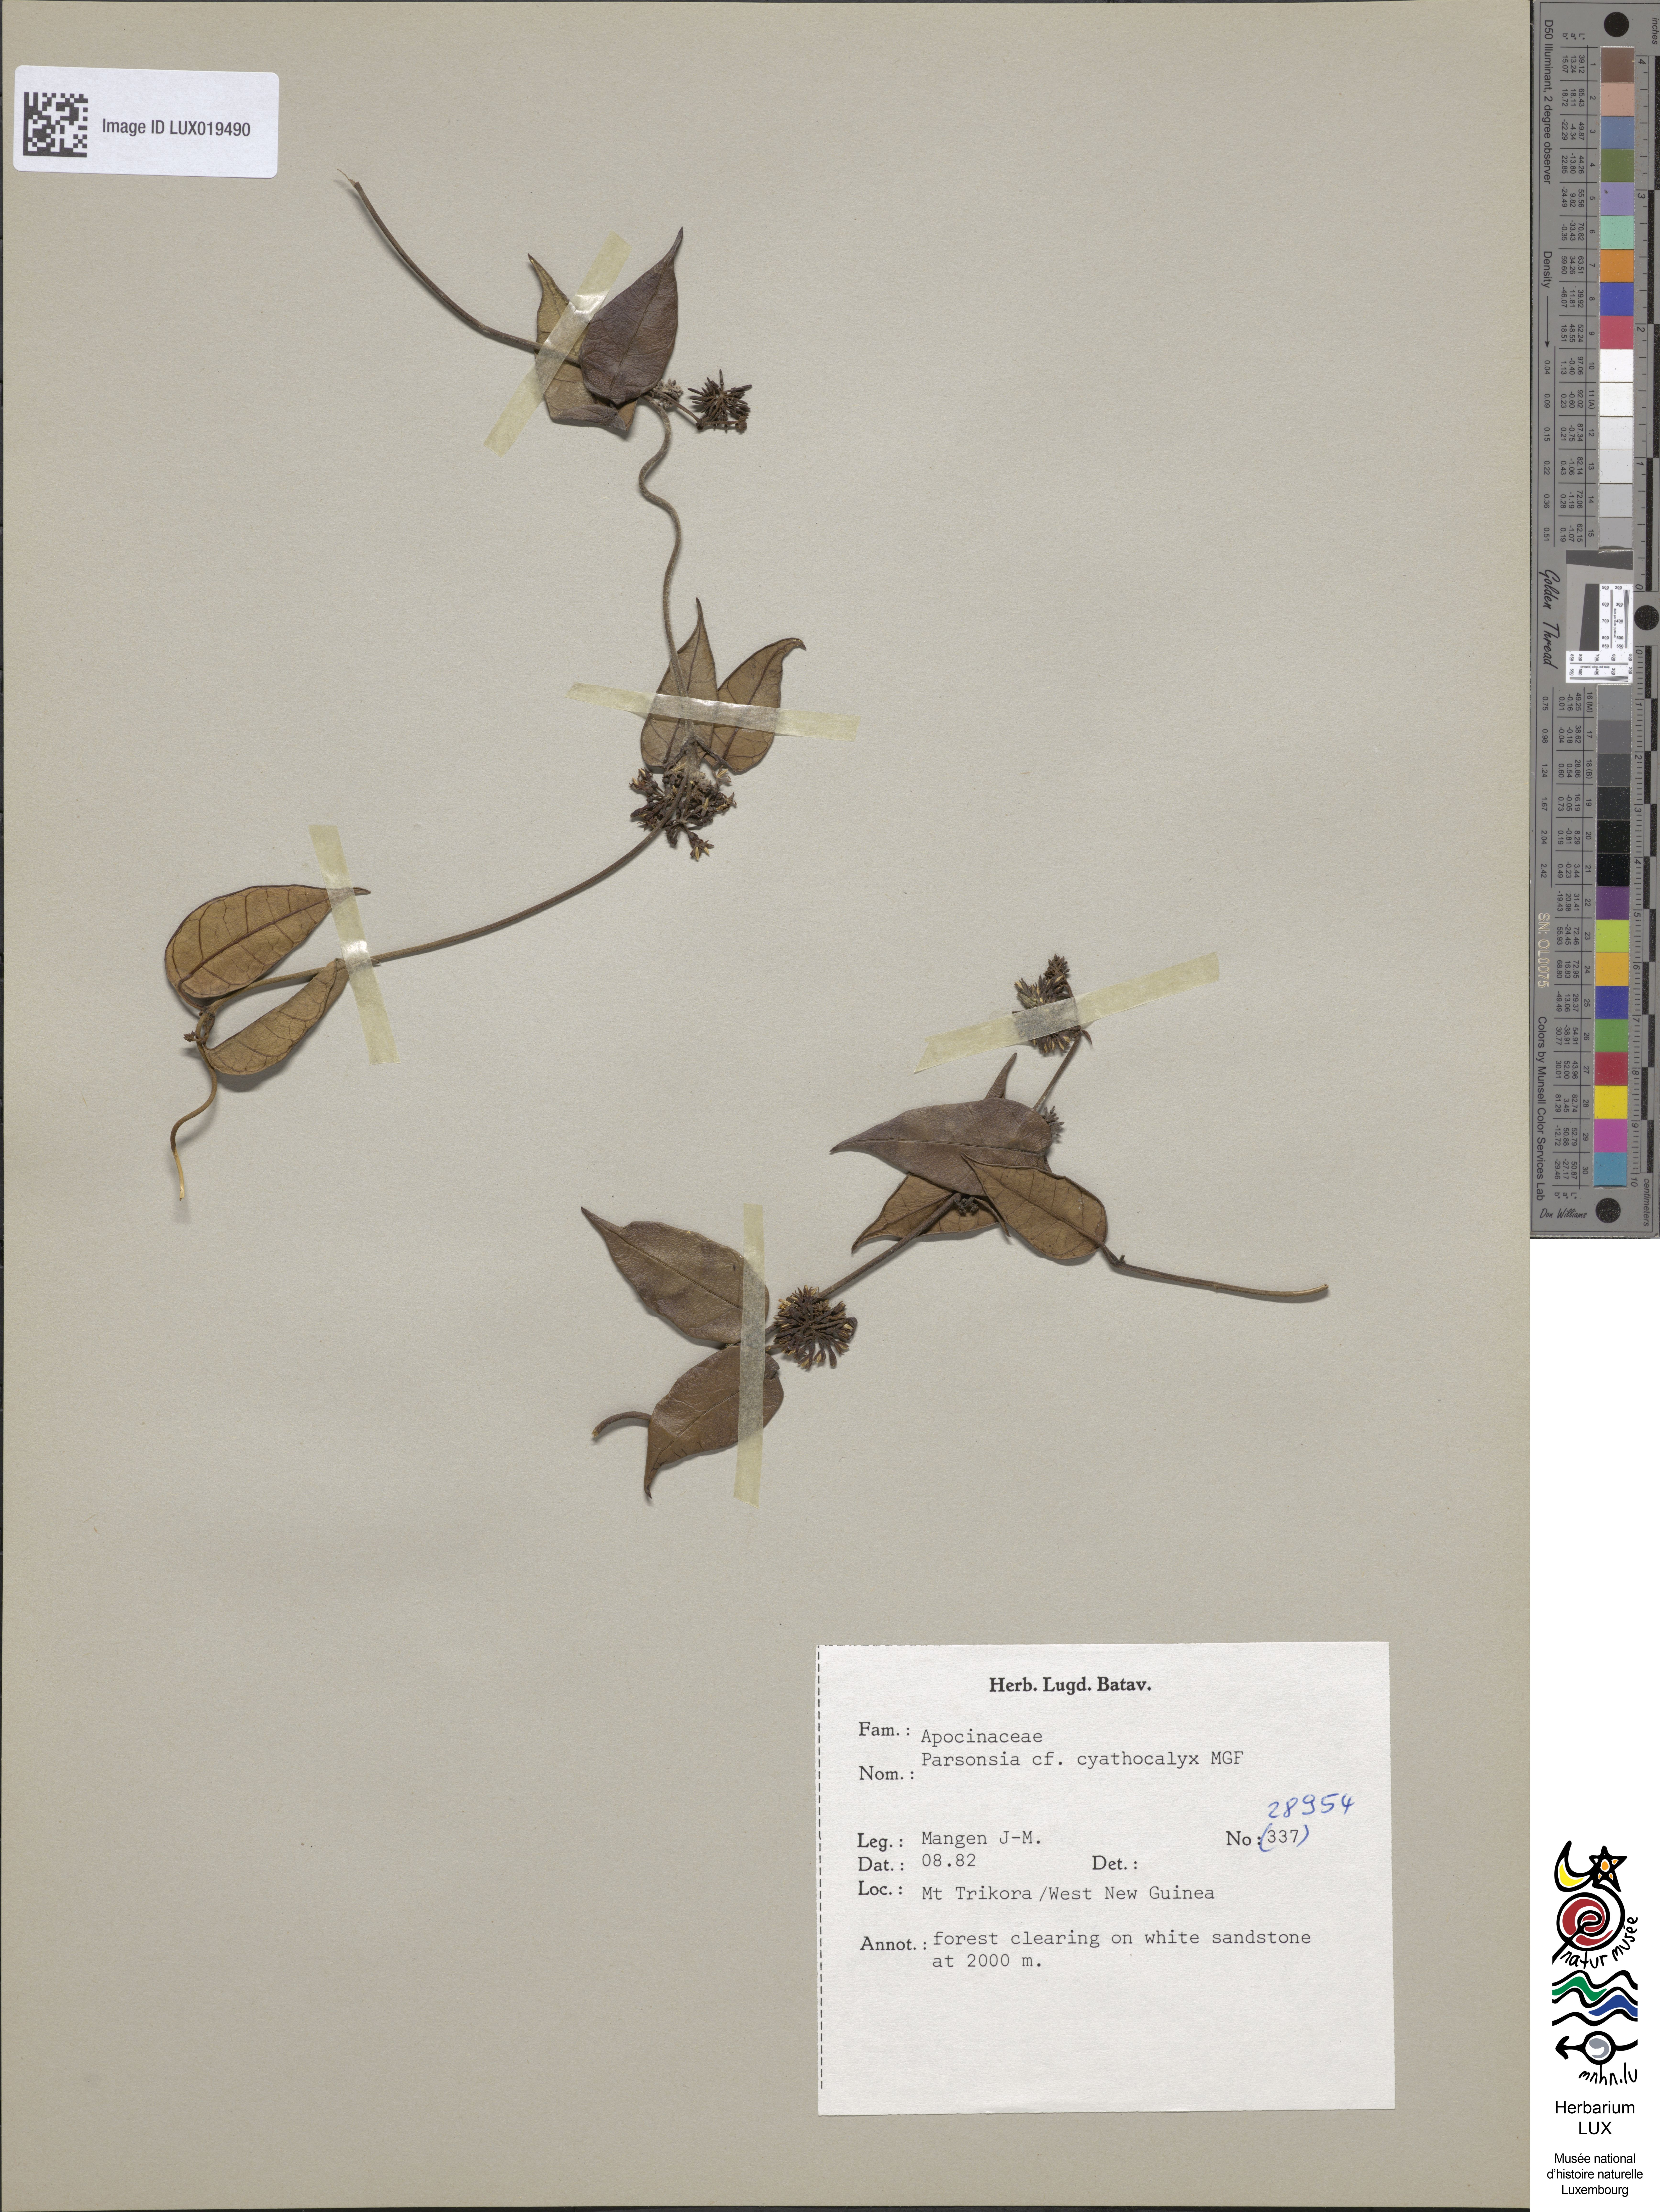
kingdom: Plantae
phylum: Tracheophyta
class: Magnoliopsida
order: Gentianales
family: Apocynaceae
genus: Parsonsia
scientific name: Parsonsia curvisepala
